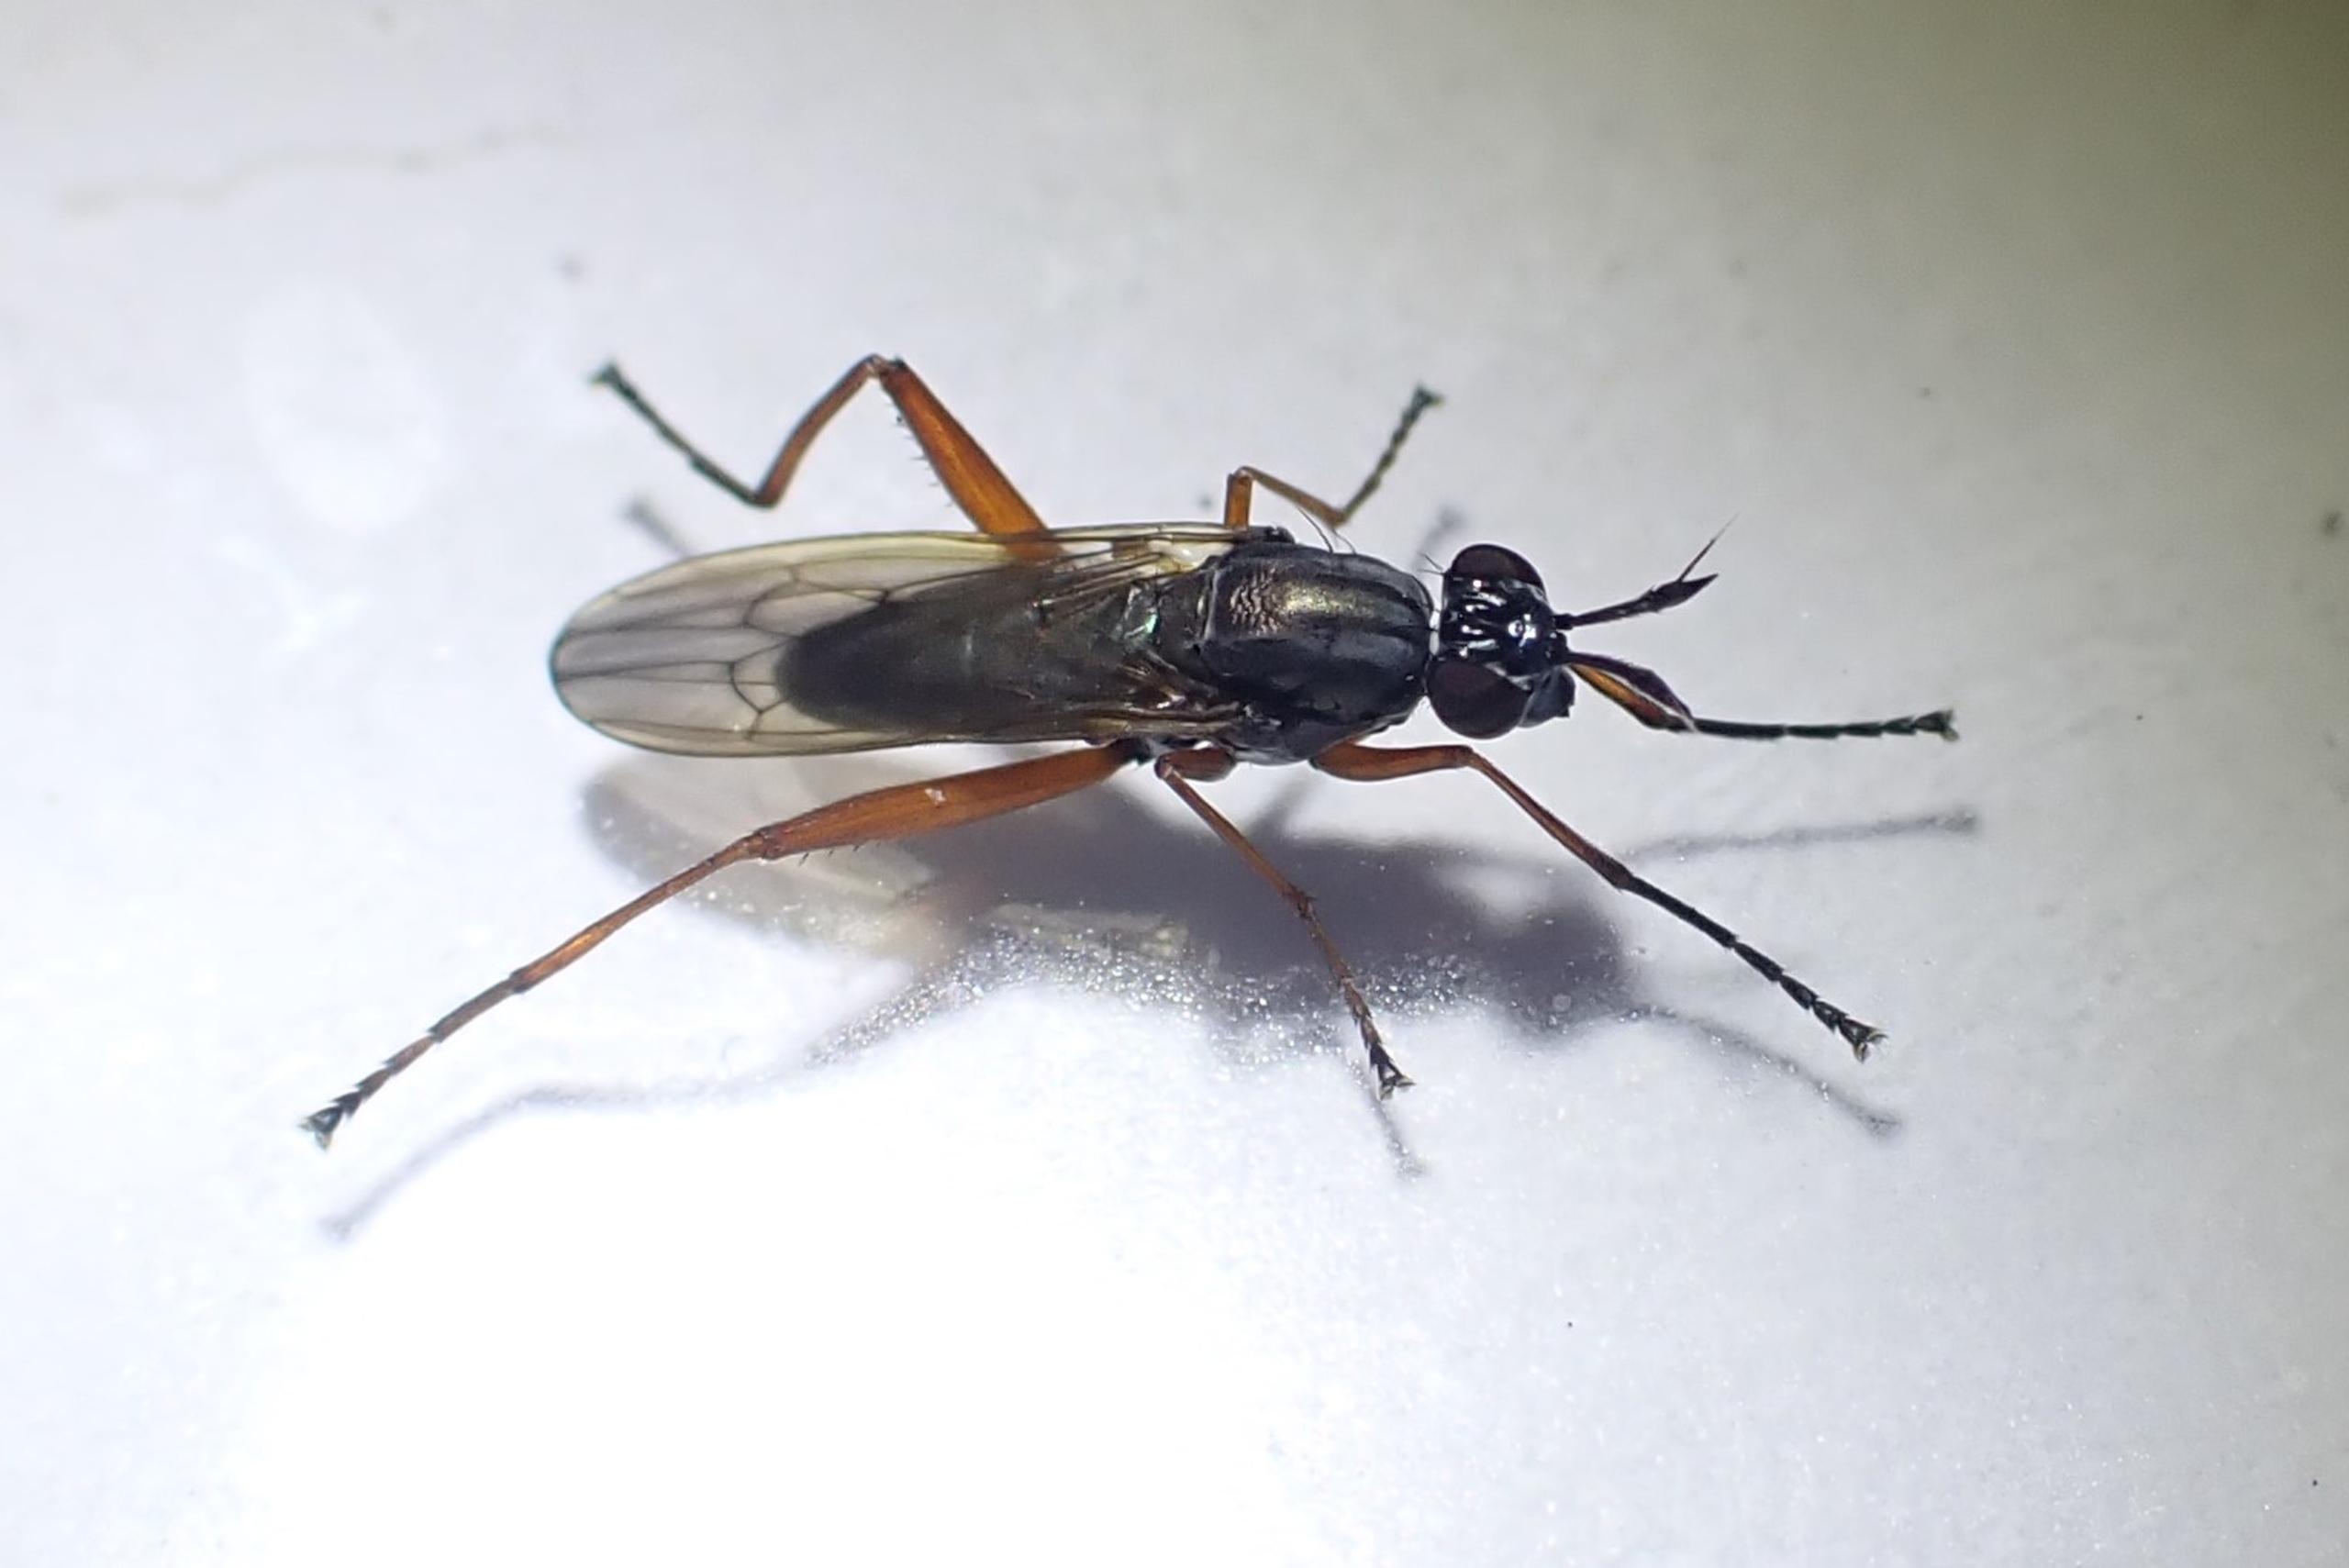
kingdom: Animalia
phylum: Arthropoda
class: Insecta
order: Diptera
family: Sciomyzidae
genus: Sepedon
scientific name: Sepedon sphegea
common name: Rødbenet kærflue
